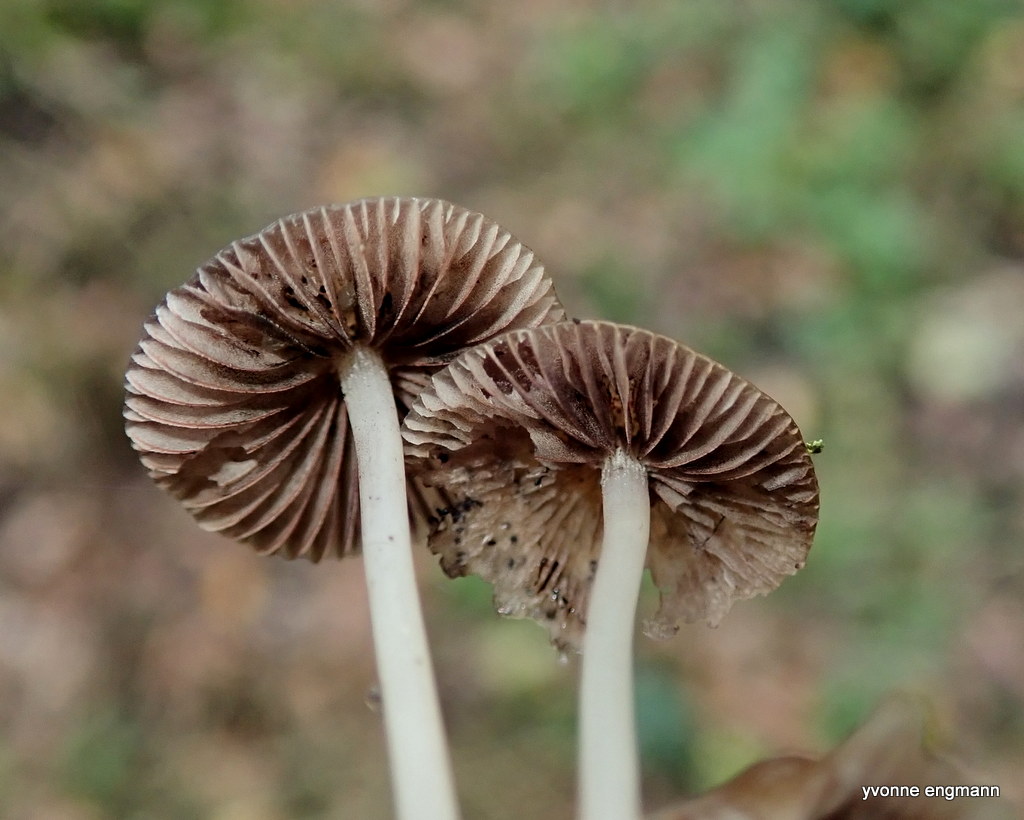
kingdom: Fungi
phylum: Basidiomycota
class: Agaricomycetes
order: Agaricales
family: Psathyrellaceae
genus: Parasola
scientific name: Parasola conopilea
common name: kegle-hjulhat
